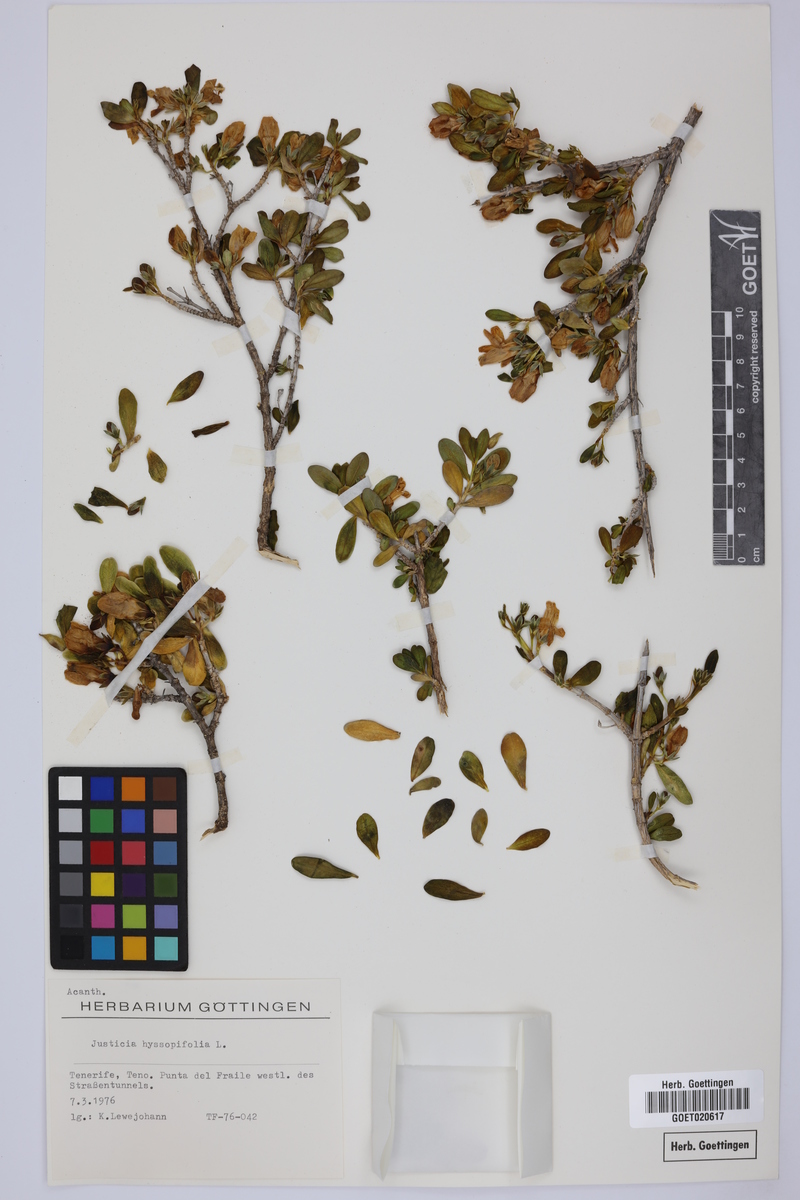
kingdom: Plantae
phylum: Tracheophyta
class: Magnoliopsida
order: Lamiales
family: Acanthaceae
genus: Justicia
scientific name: Justicia hyssopifolia
